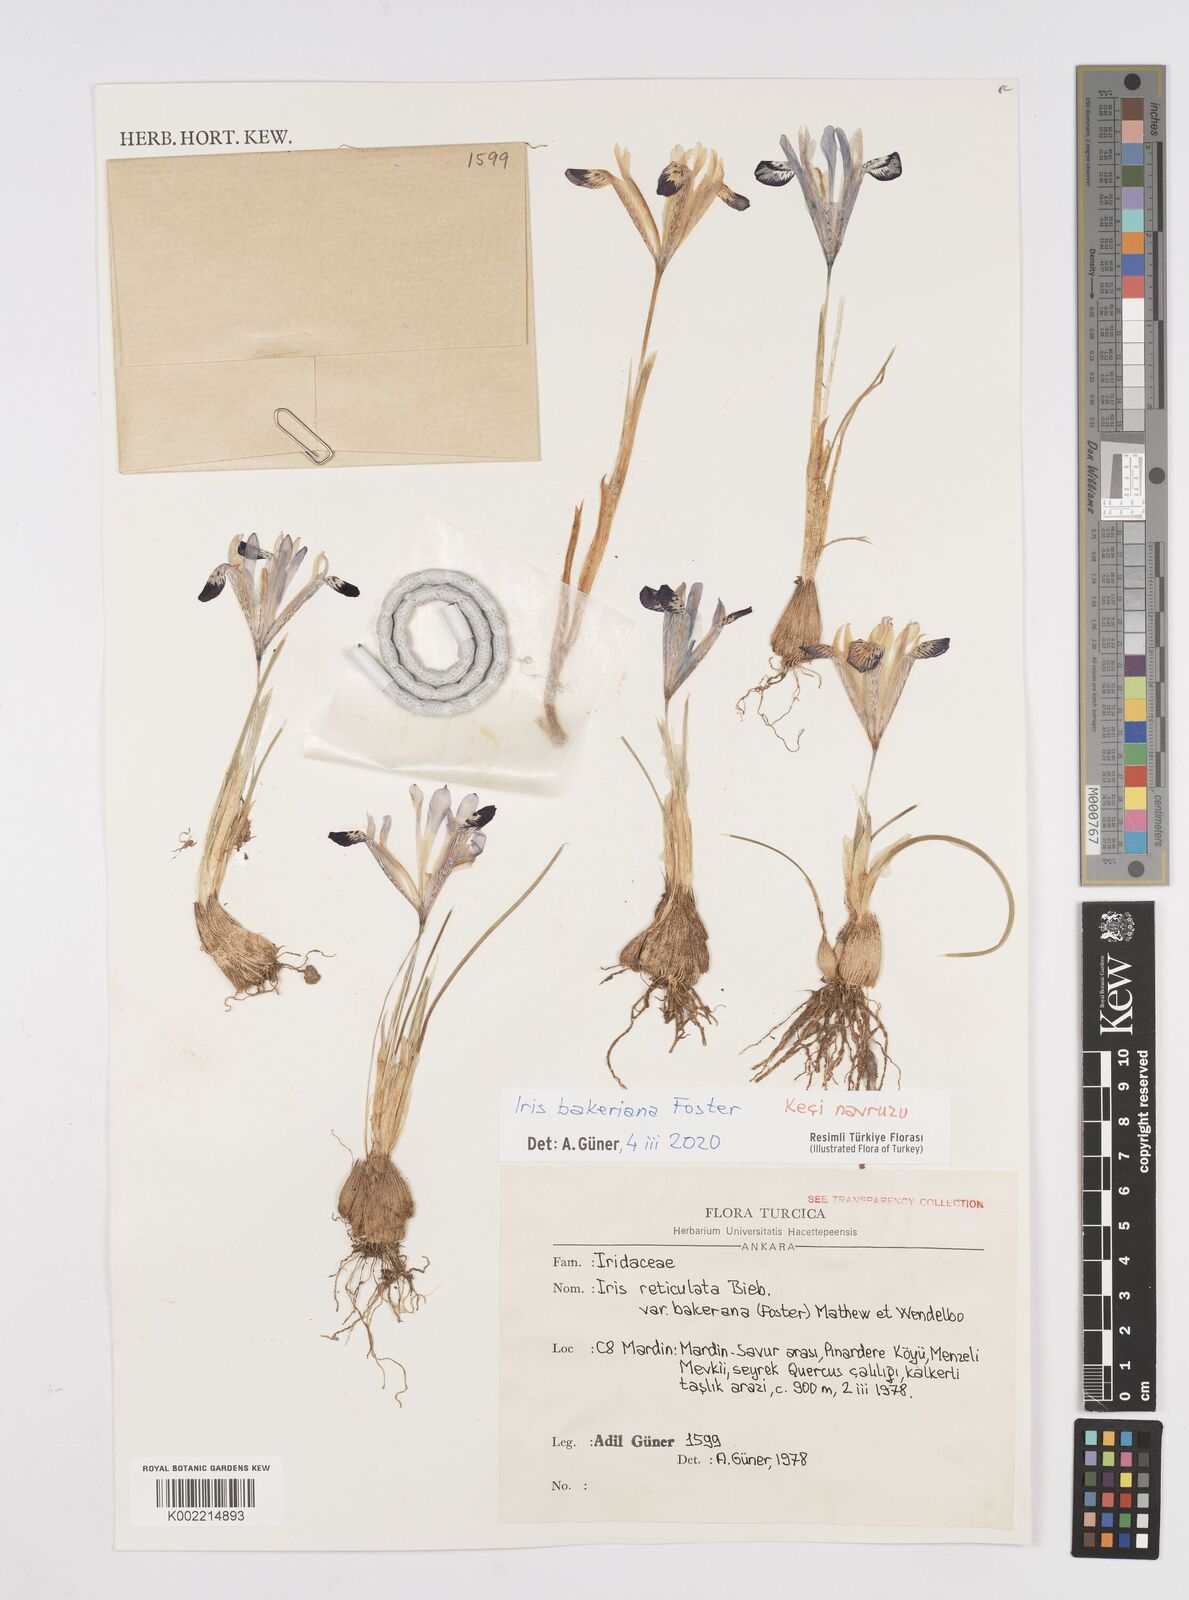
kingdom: Plantae
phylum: Tracheophyta
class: Liliopsida
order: Asparagales
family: Iridaceae
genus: Iris
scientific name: Iris reticulata
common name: Netted iris
